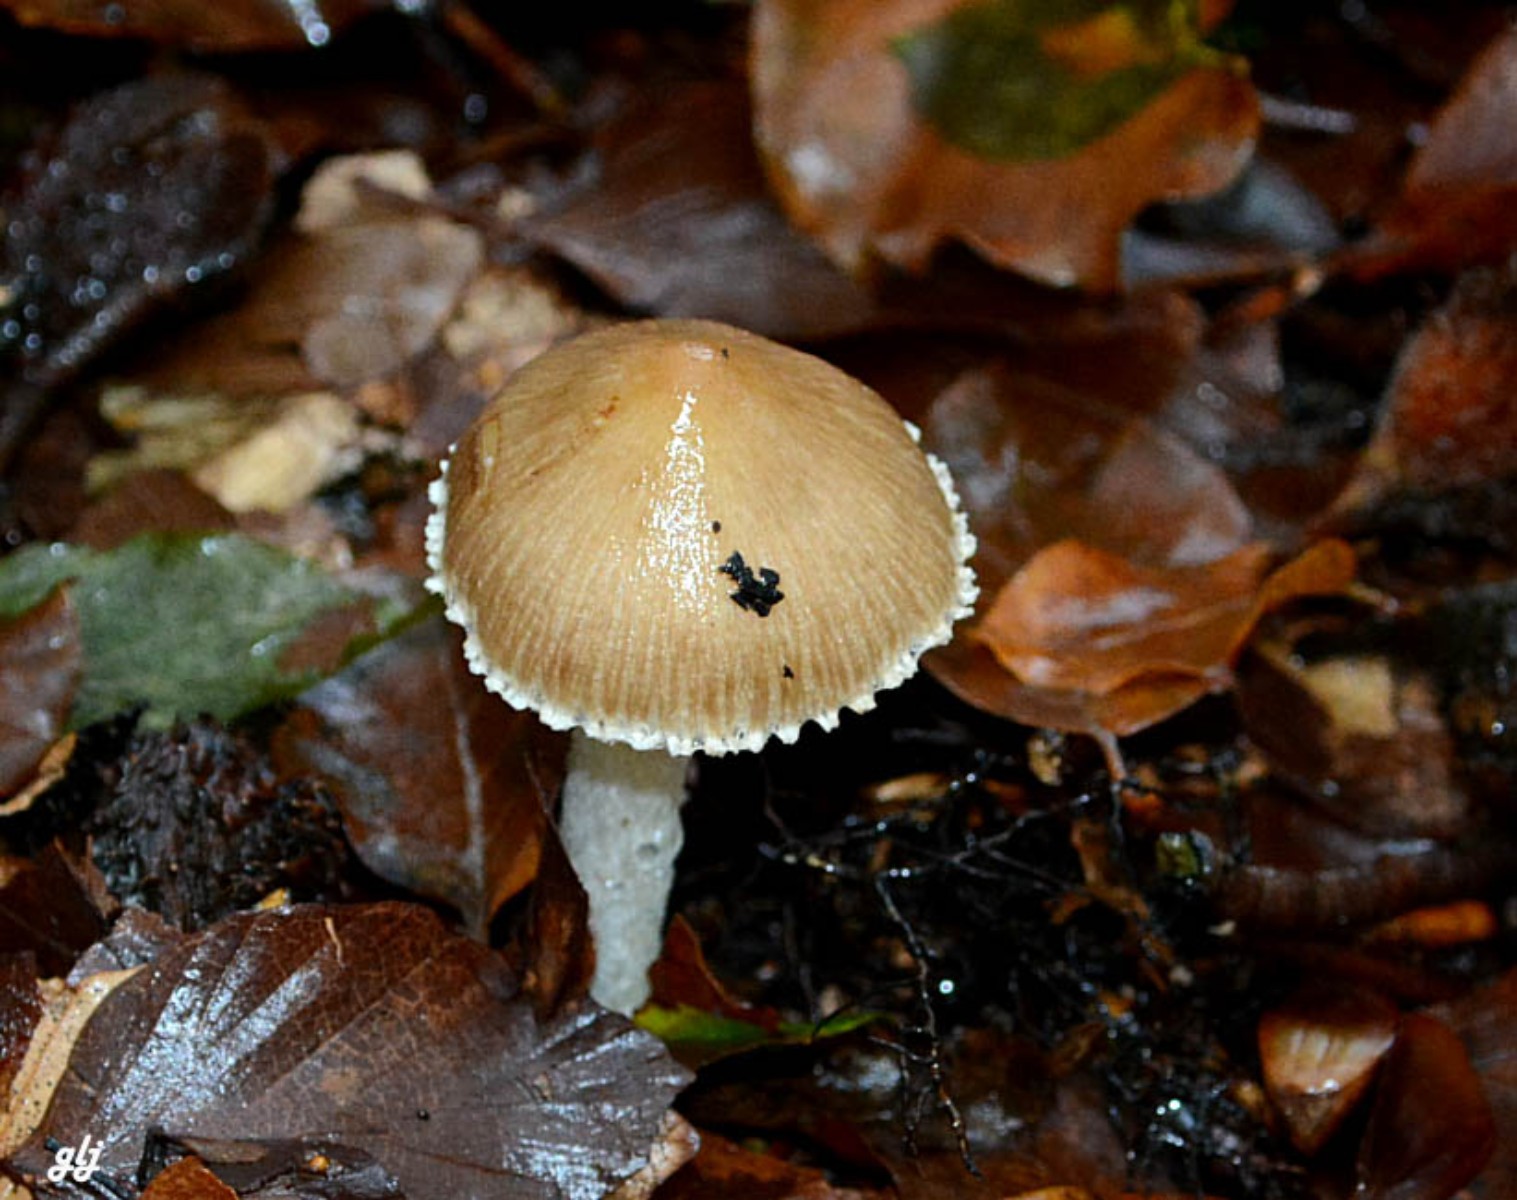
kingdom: Fungi
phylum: Basidiomycota
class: Agaricomycetes
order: Agaricales
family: Inocybaceae
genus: Inocybe
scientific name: Inocybe
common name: trævlhat
